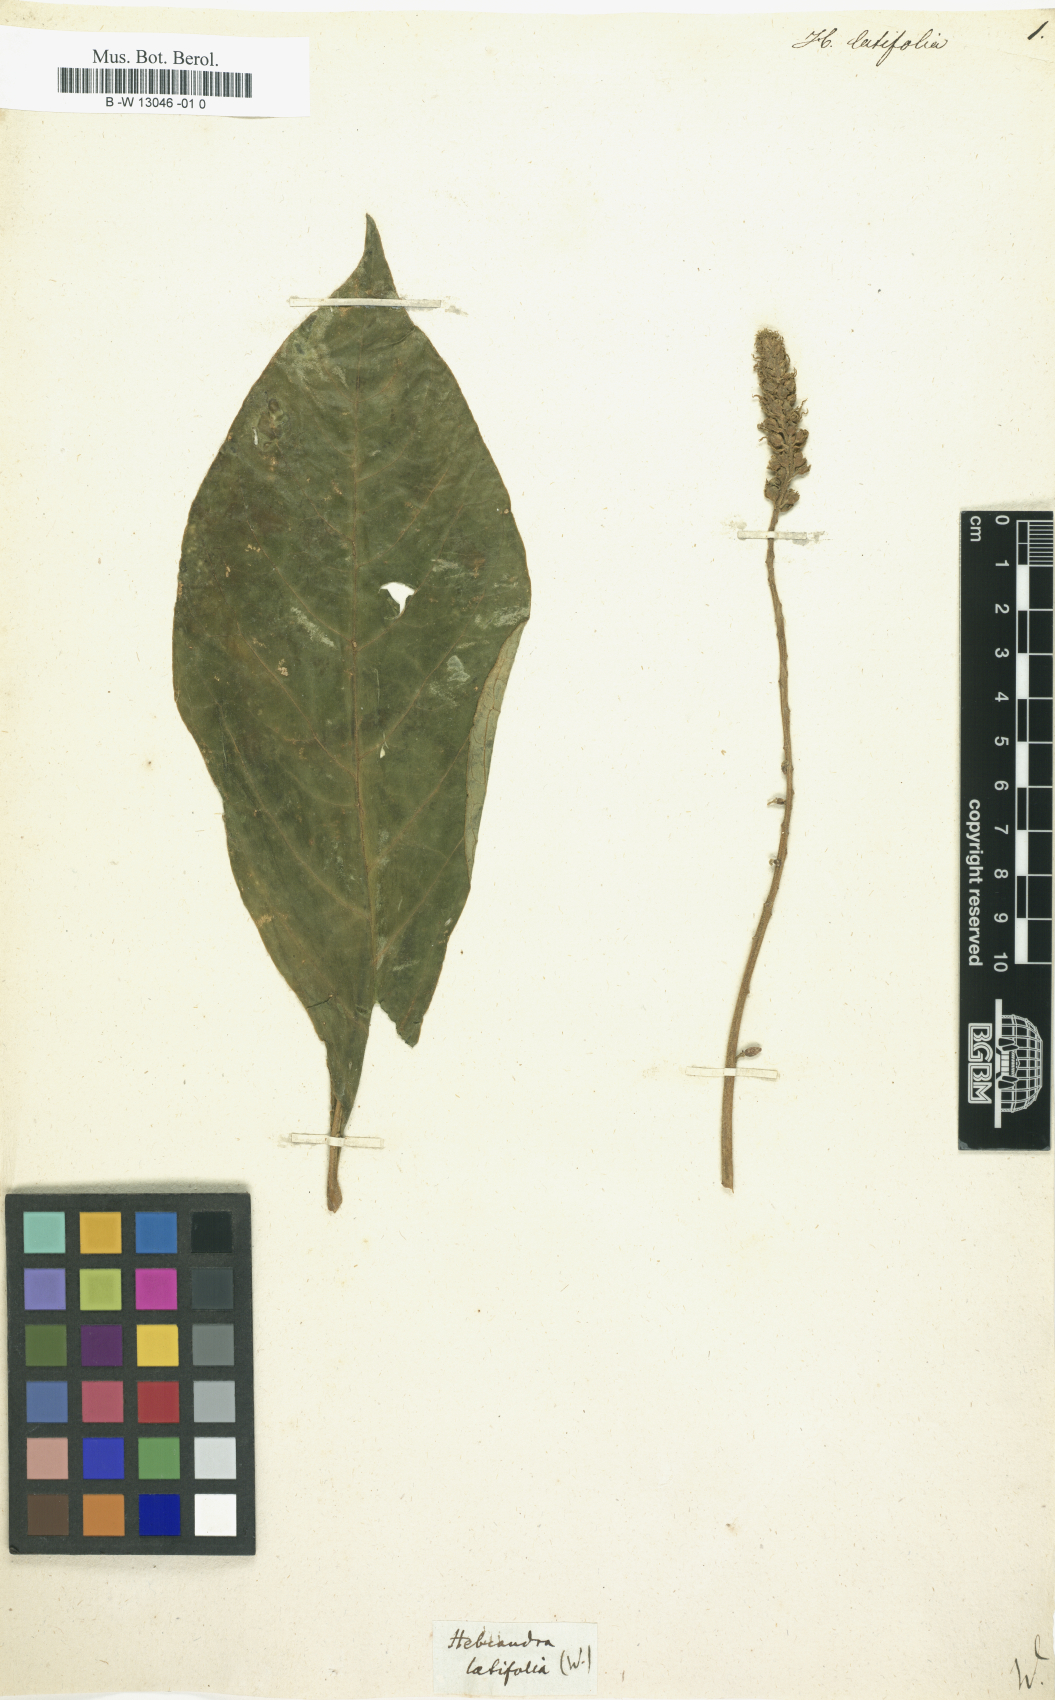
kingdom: Plantae
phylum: Tracheophyta
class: Magnoliopsida
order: Fabales
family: Polygalaceae
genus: Monnina
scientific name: Monnina latifolia
